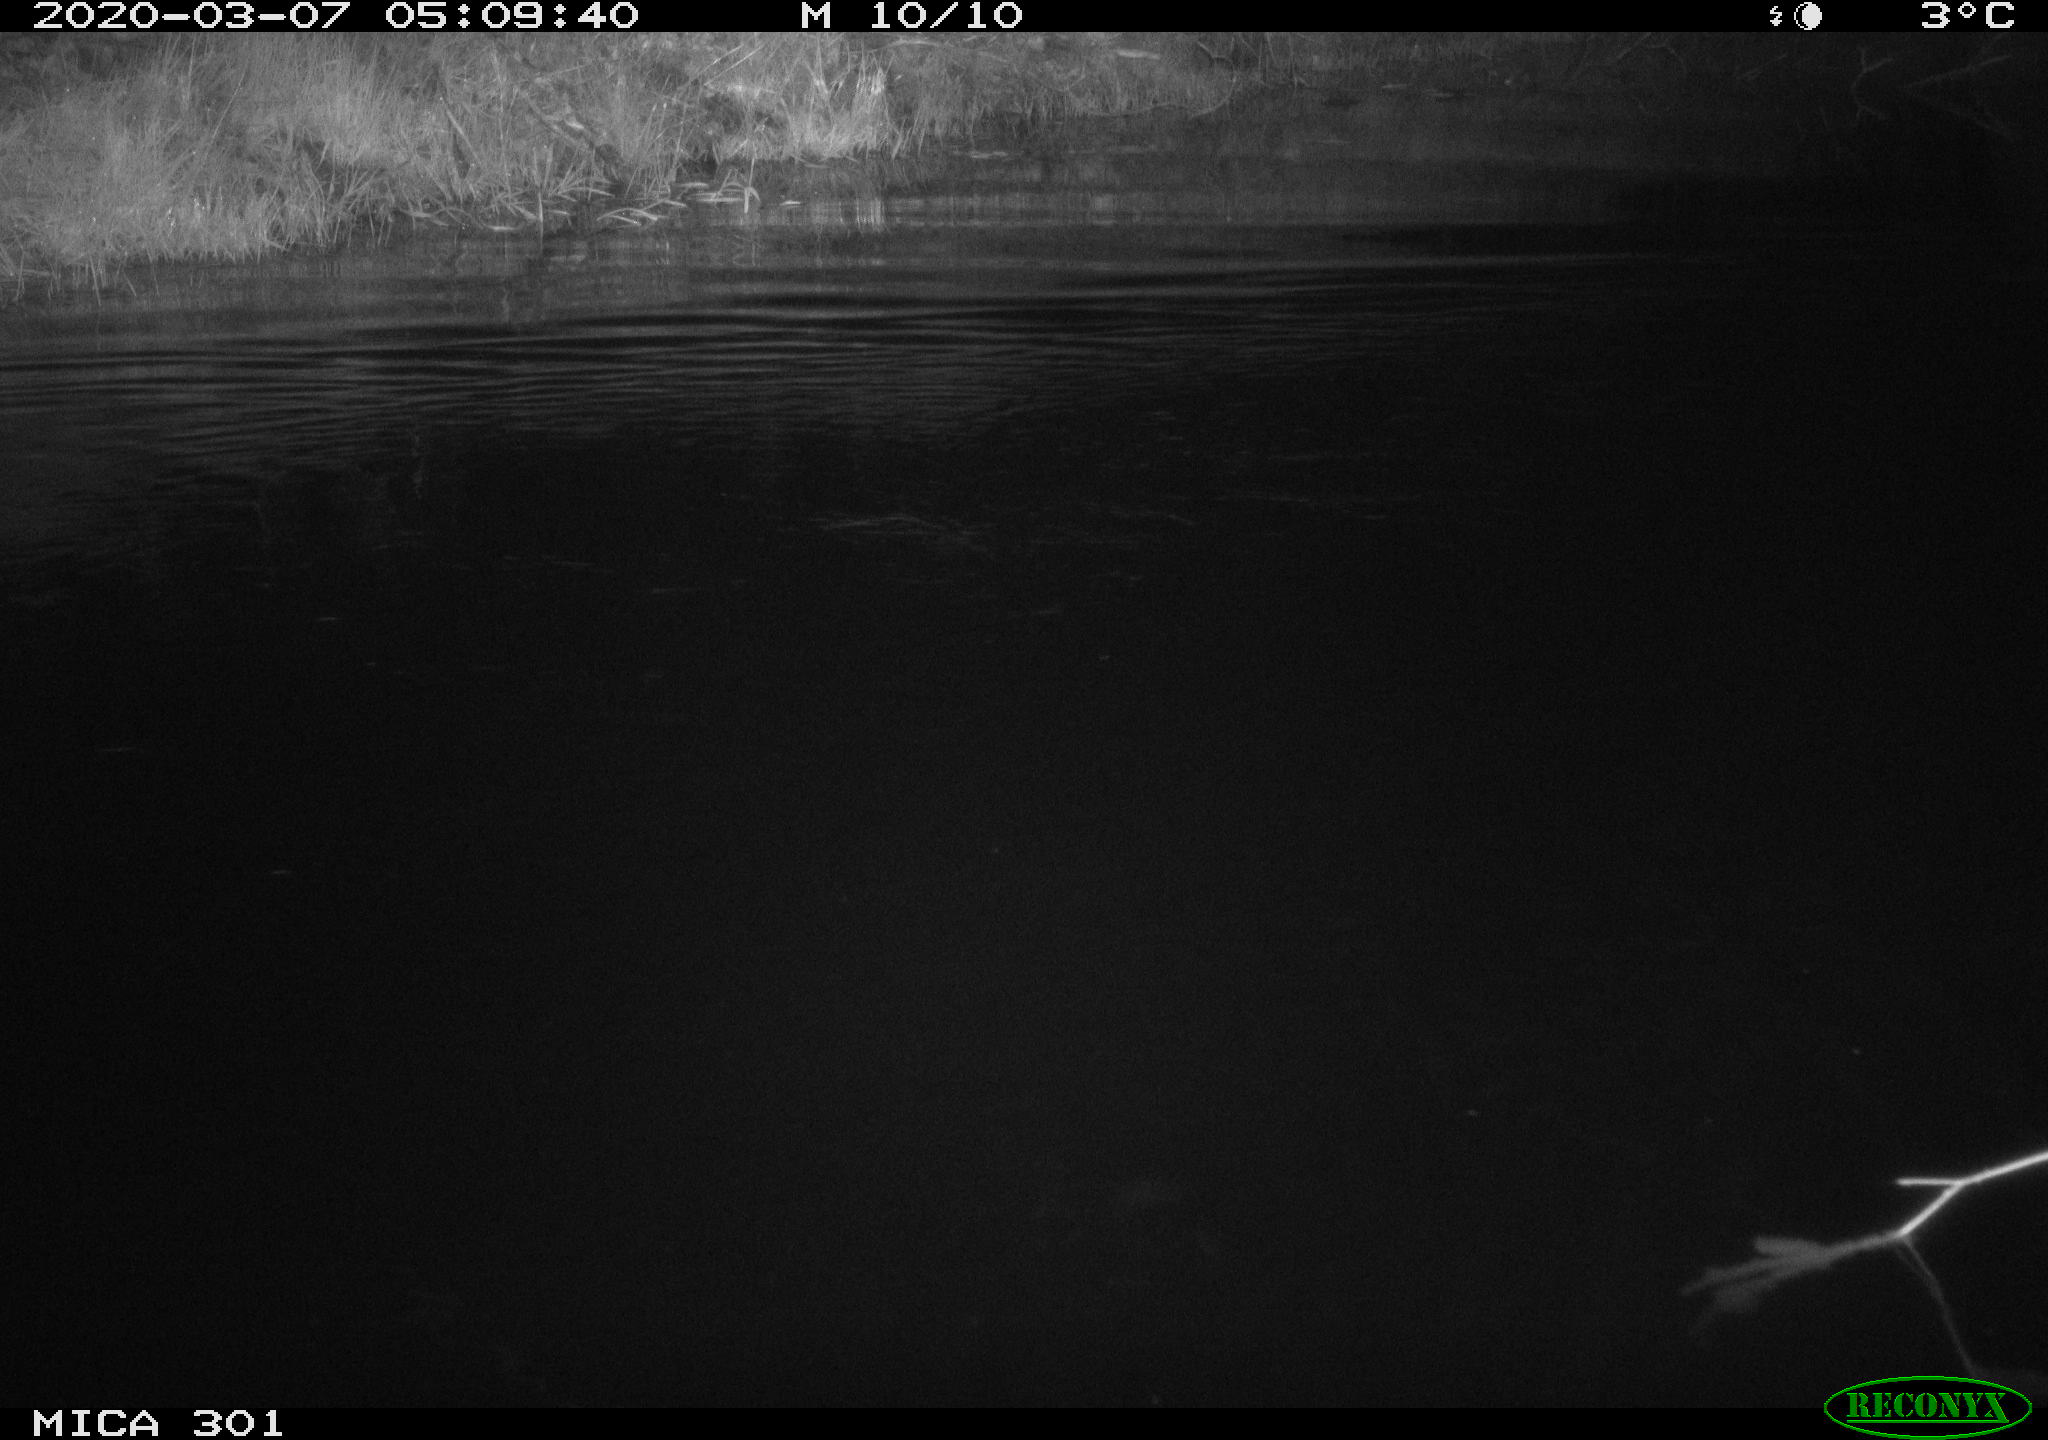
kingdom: Animalia
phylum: Chordata
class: Mammalia
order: Rodentia
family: Castoridae
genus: Castor
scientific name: Castor fiber
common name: Eurasian beaver
